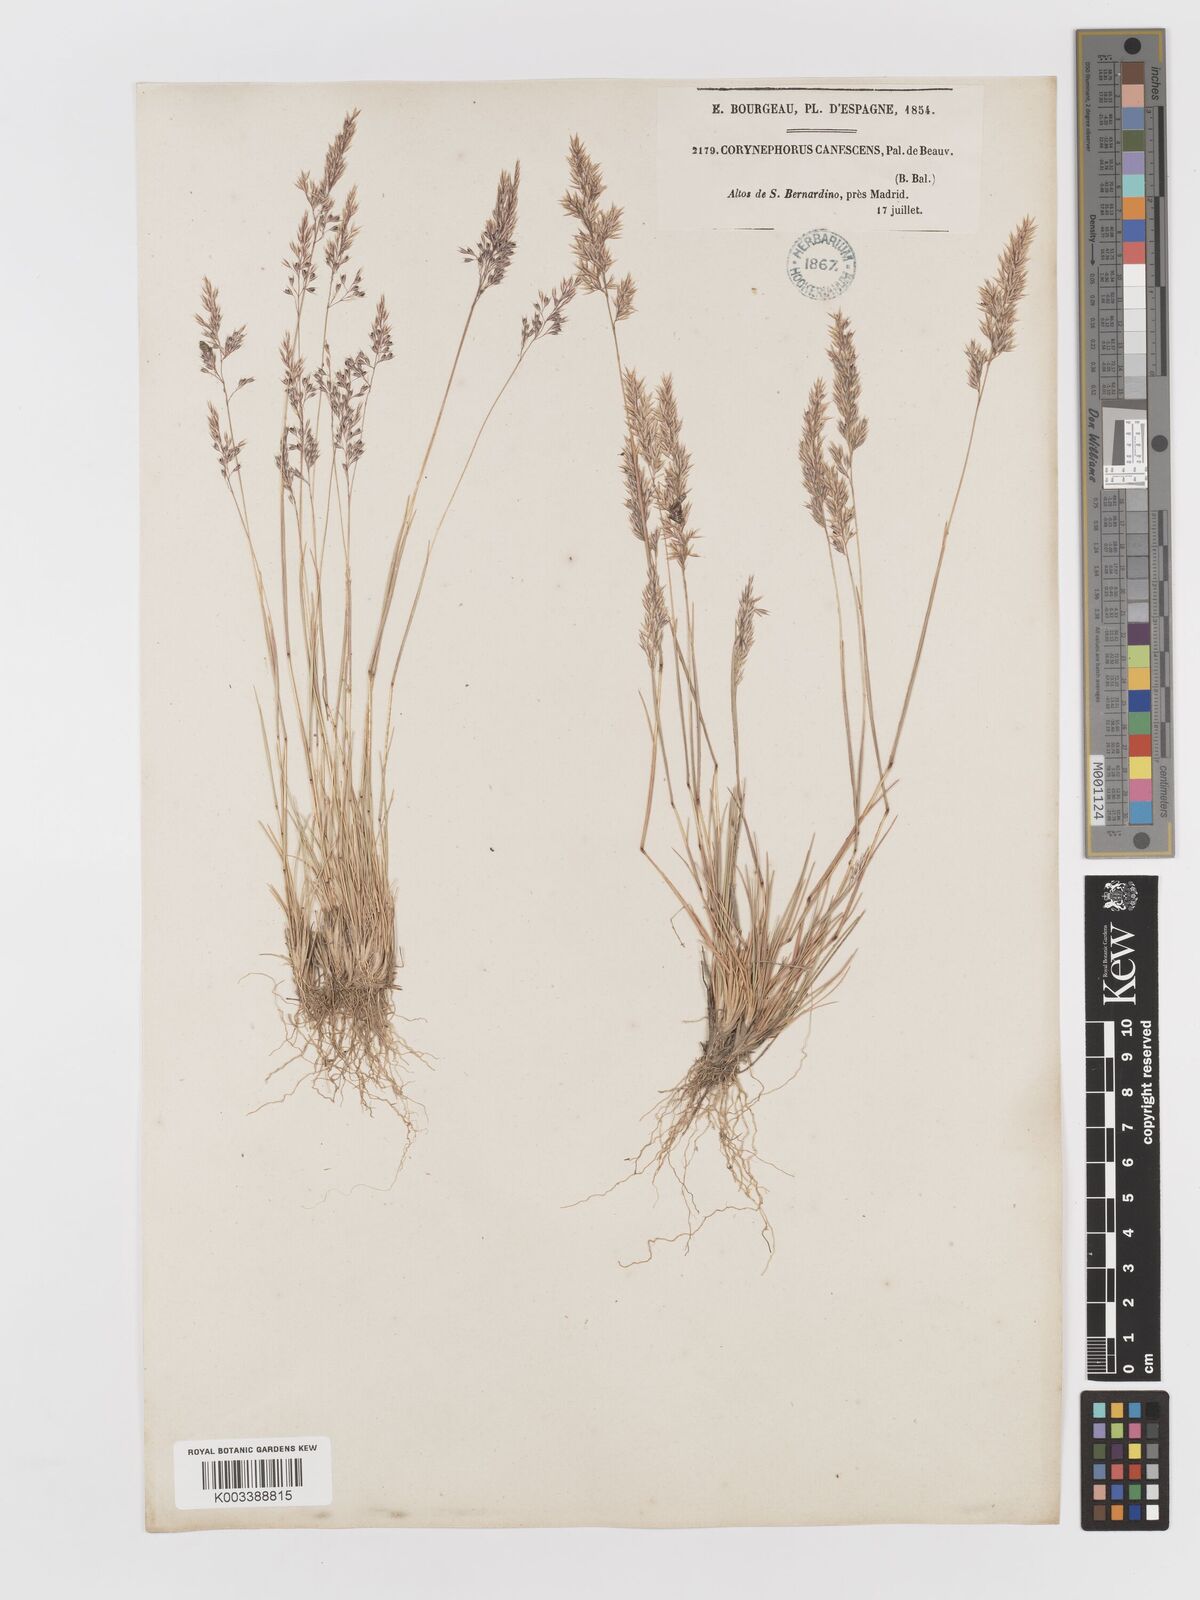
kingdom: Plantae
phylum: Tracheophyta
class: Liliopsida
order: Poales
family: Poaceae
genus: Corynephorus
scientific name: Corynephorus canescens
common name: Grey hair-grass
